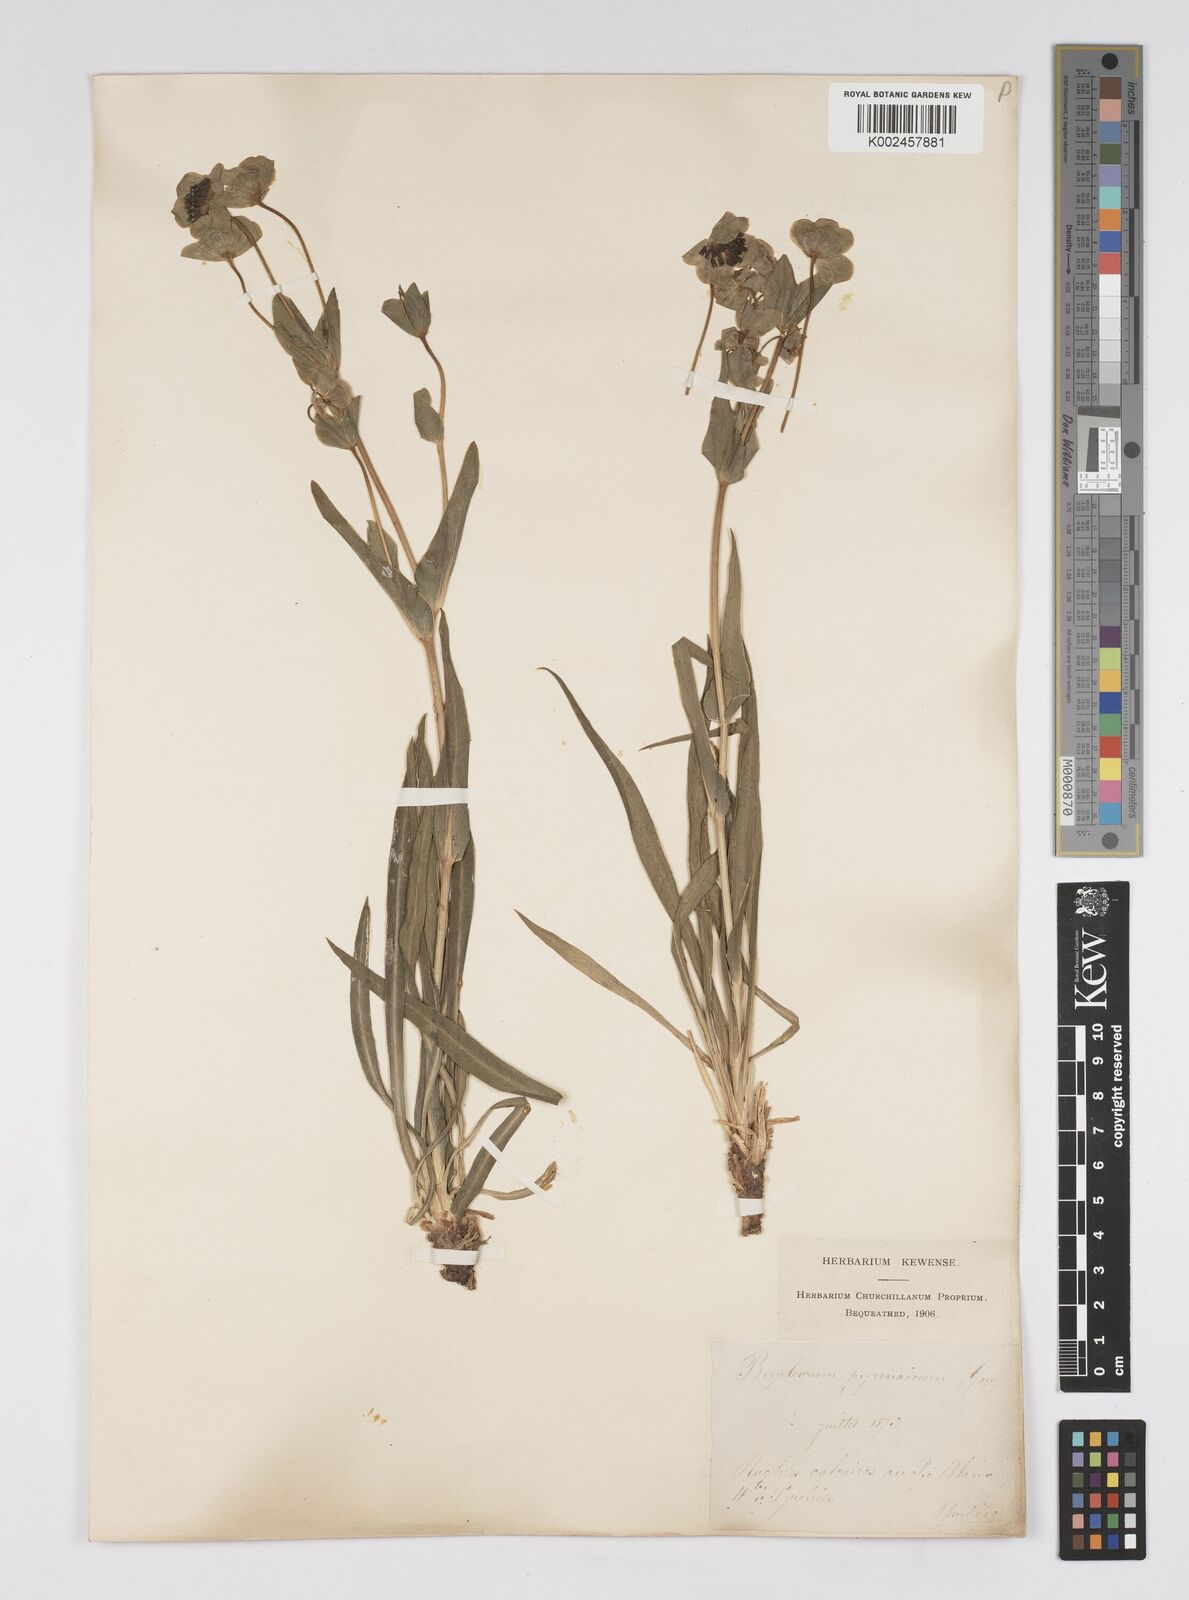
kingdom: Plantae
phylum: Tracheophyta
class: Magnoliopsida
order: Apiales
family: Apiaceae
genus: Bupleurum
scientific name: Bupleurum angulosum
